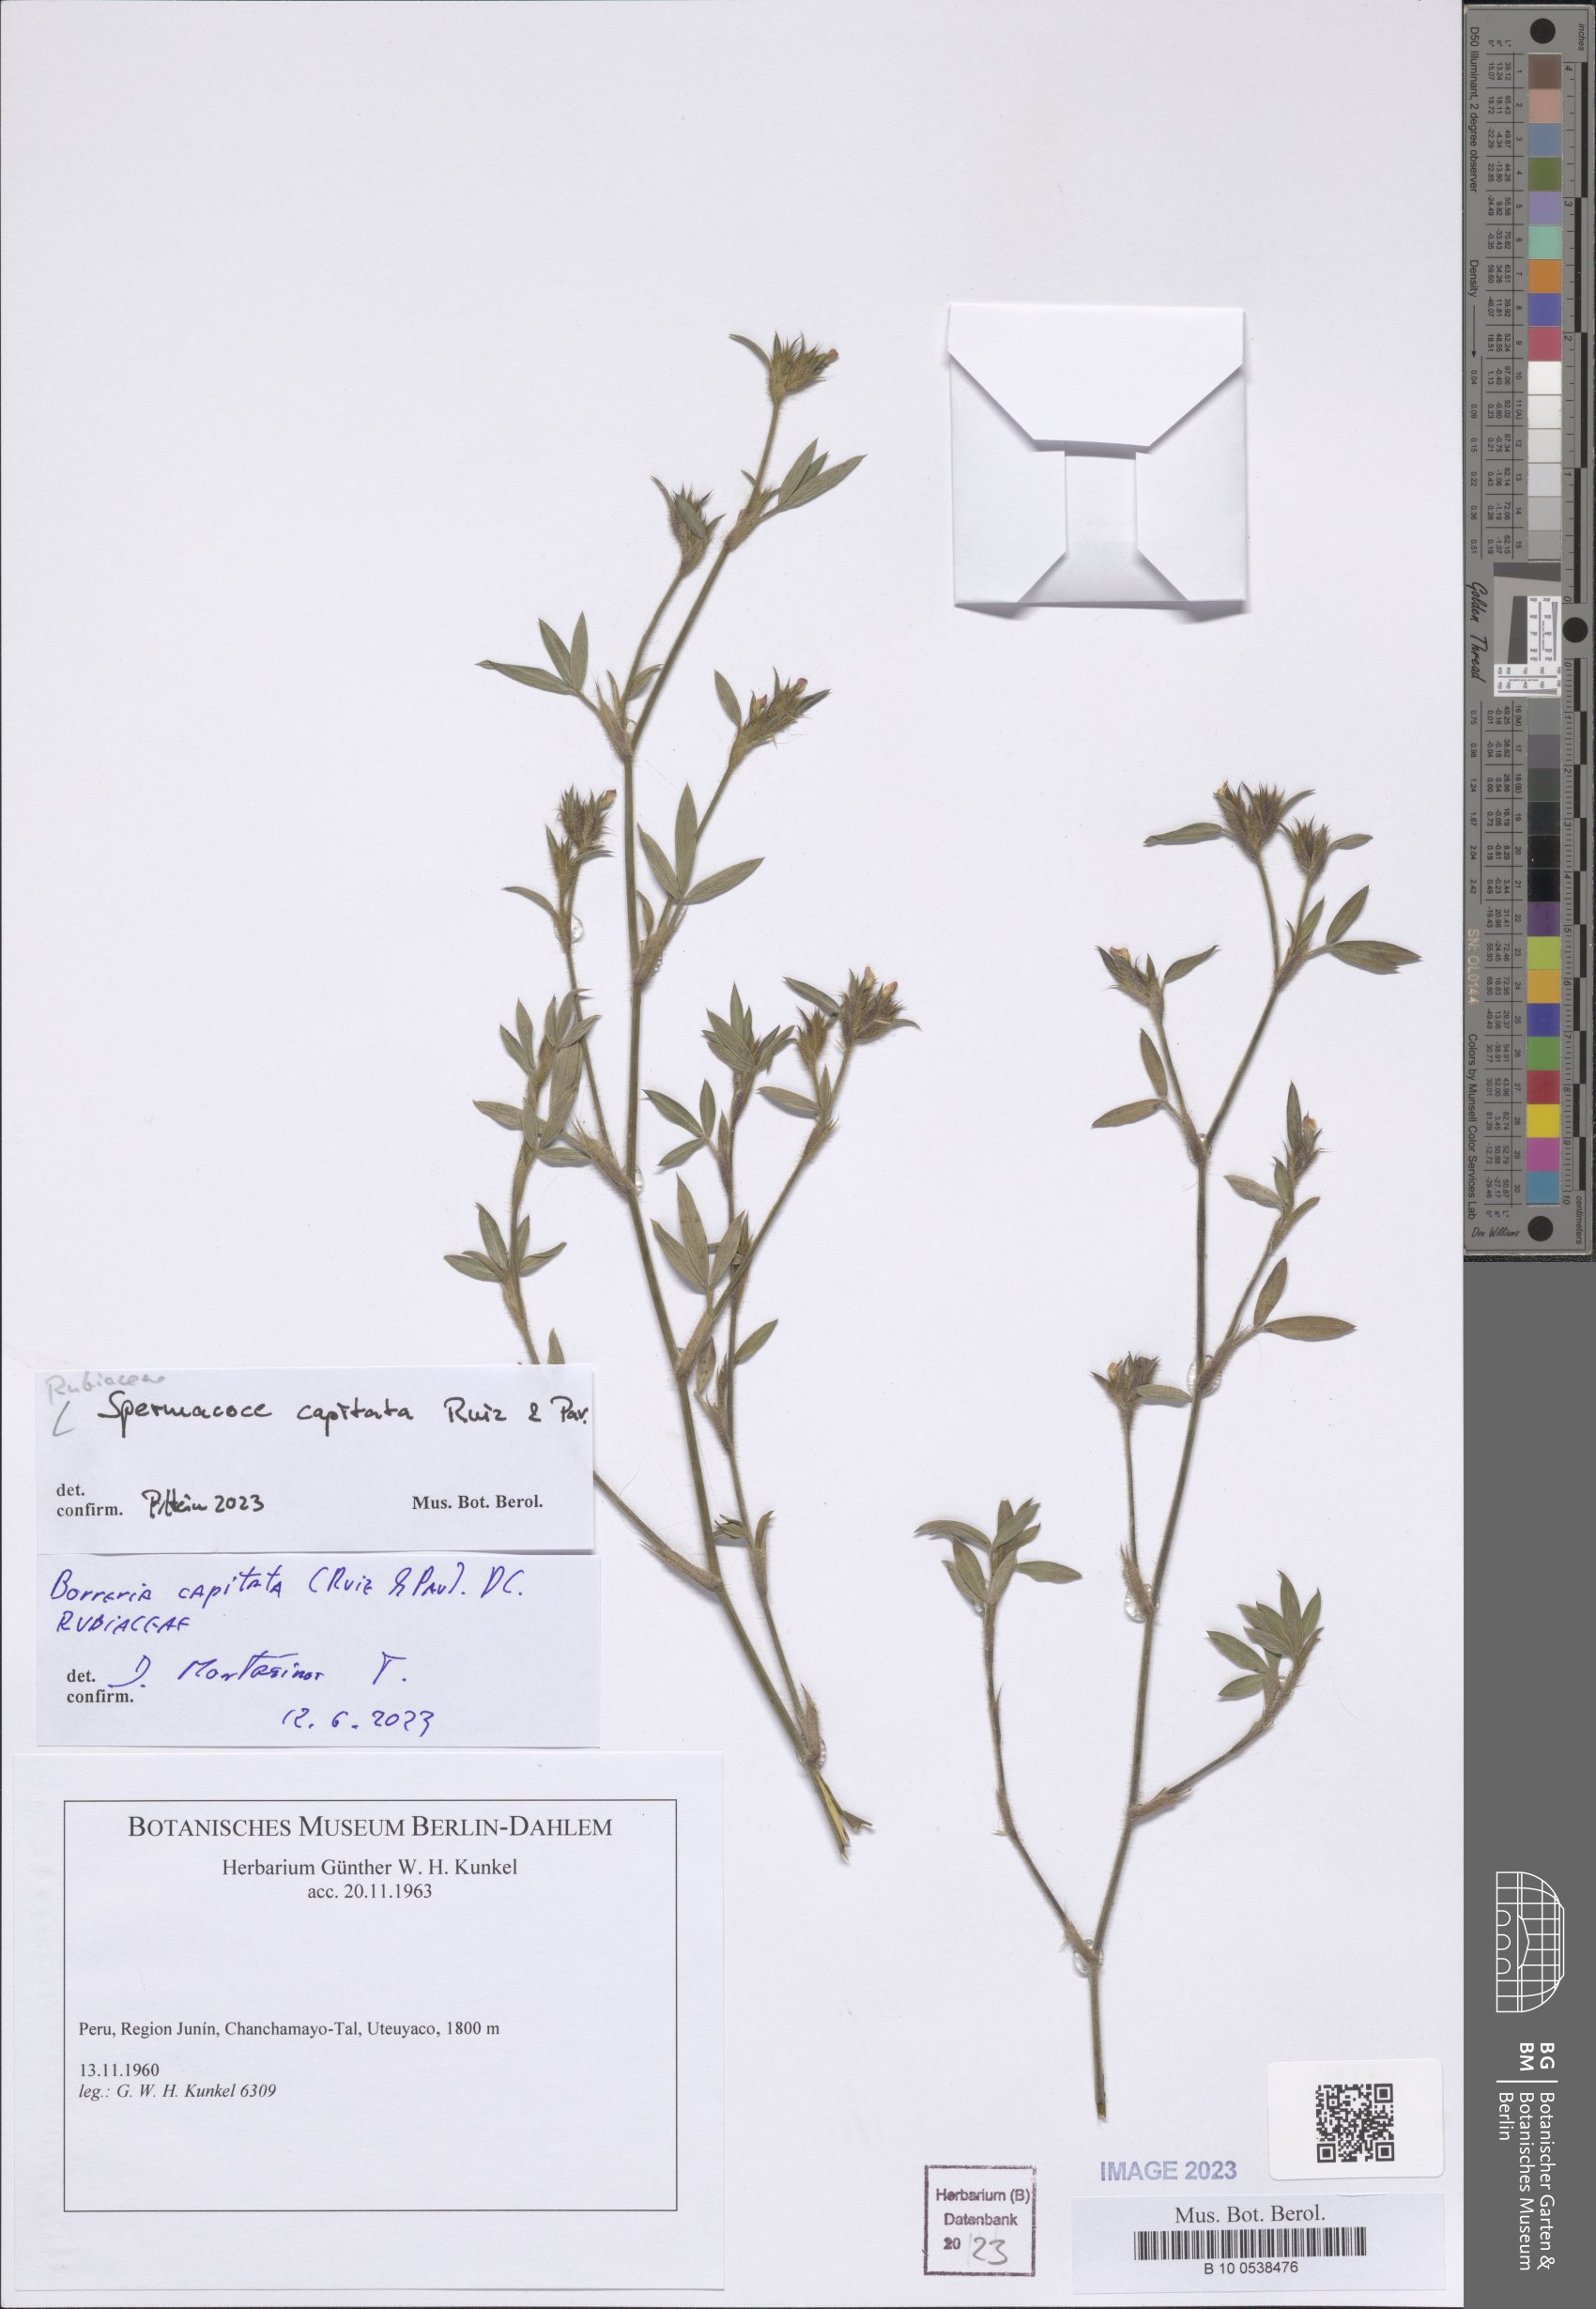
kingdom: Plantae
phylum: Tracheophyta
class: Magnoliopsida
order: Gentianales
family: Rubiaceae
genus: Spermacoce
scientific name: Spermacoce capitata
